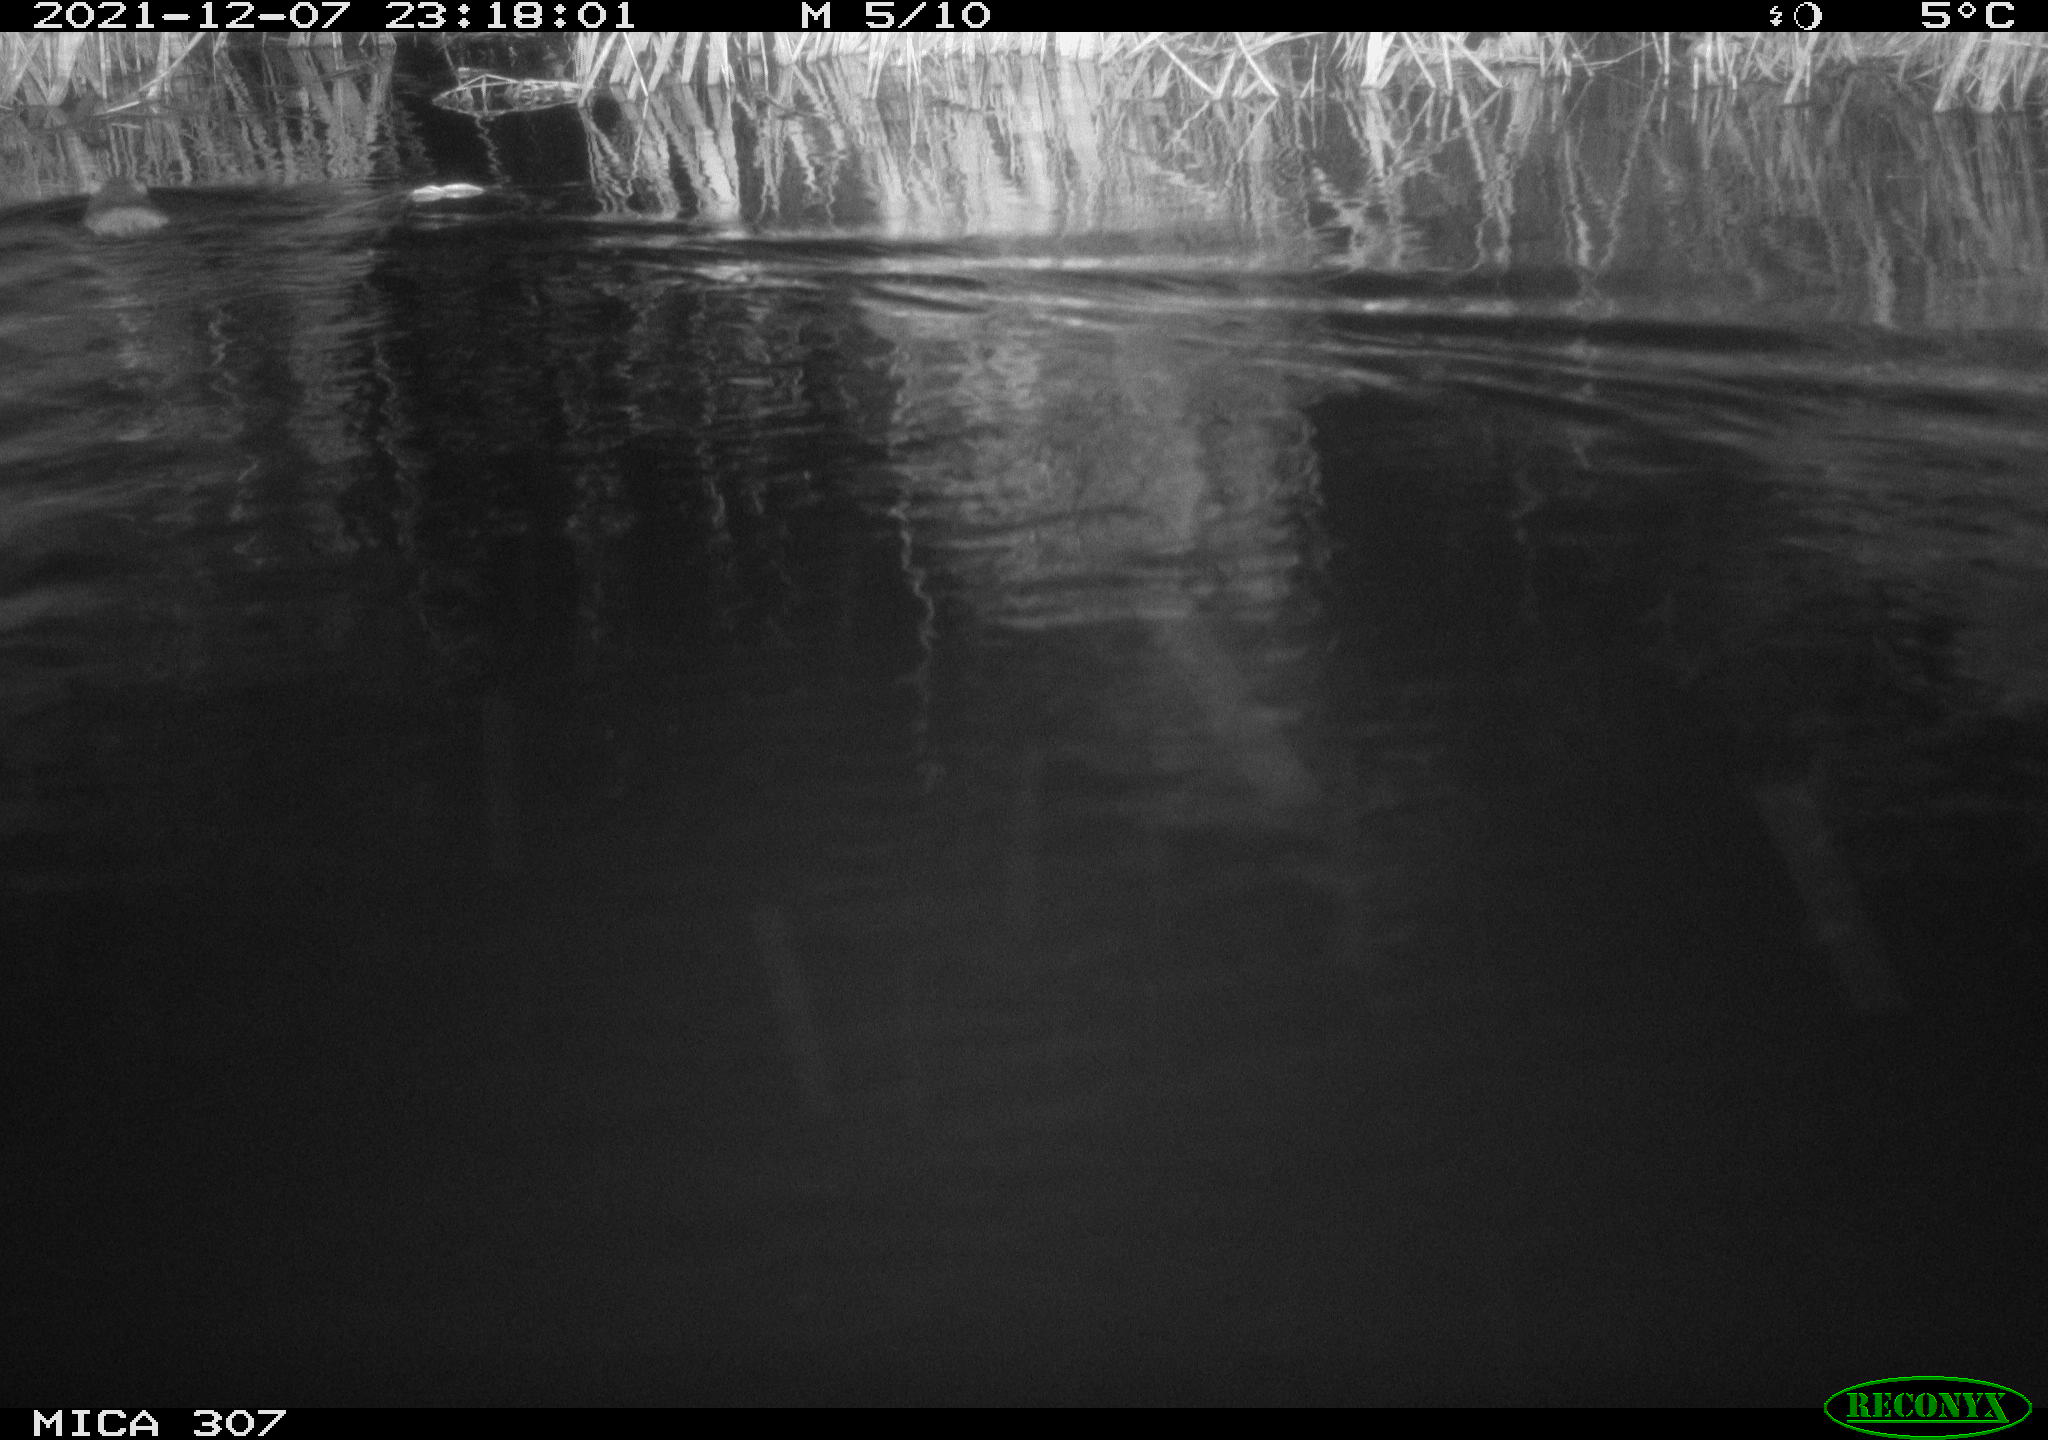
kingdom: Animalia
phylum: Chordata
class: Mammalia
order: Rodentia
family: Muridae
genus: Rattus
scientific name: Rattus norvegicus
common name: Brown rat
